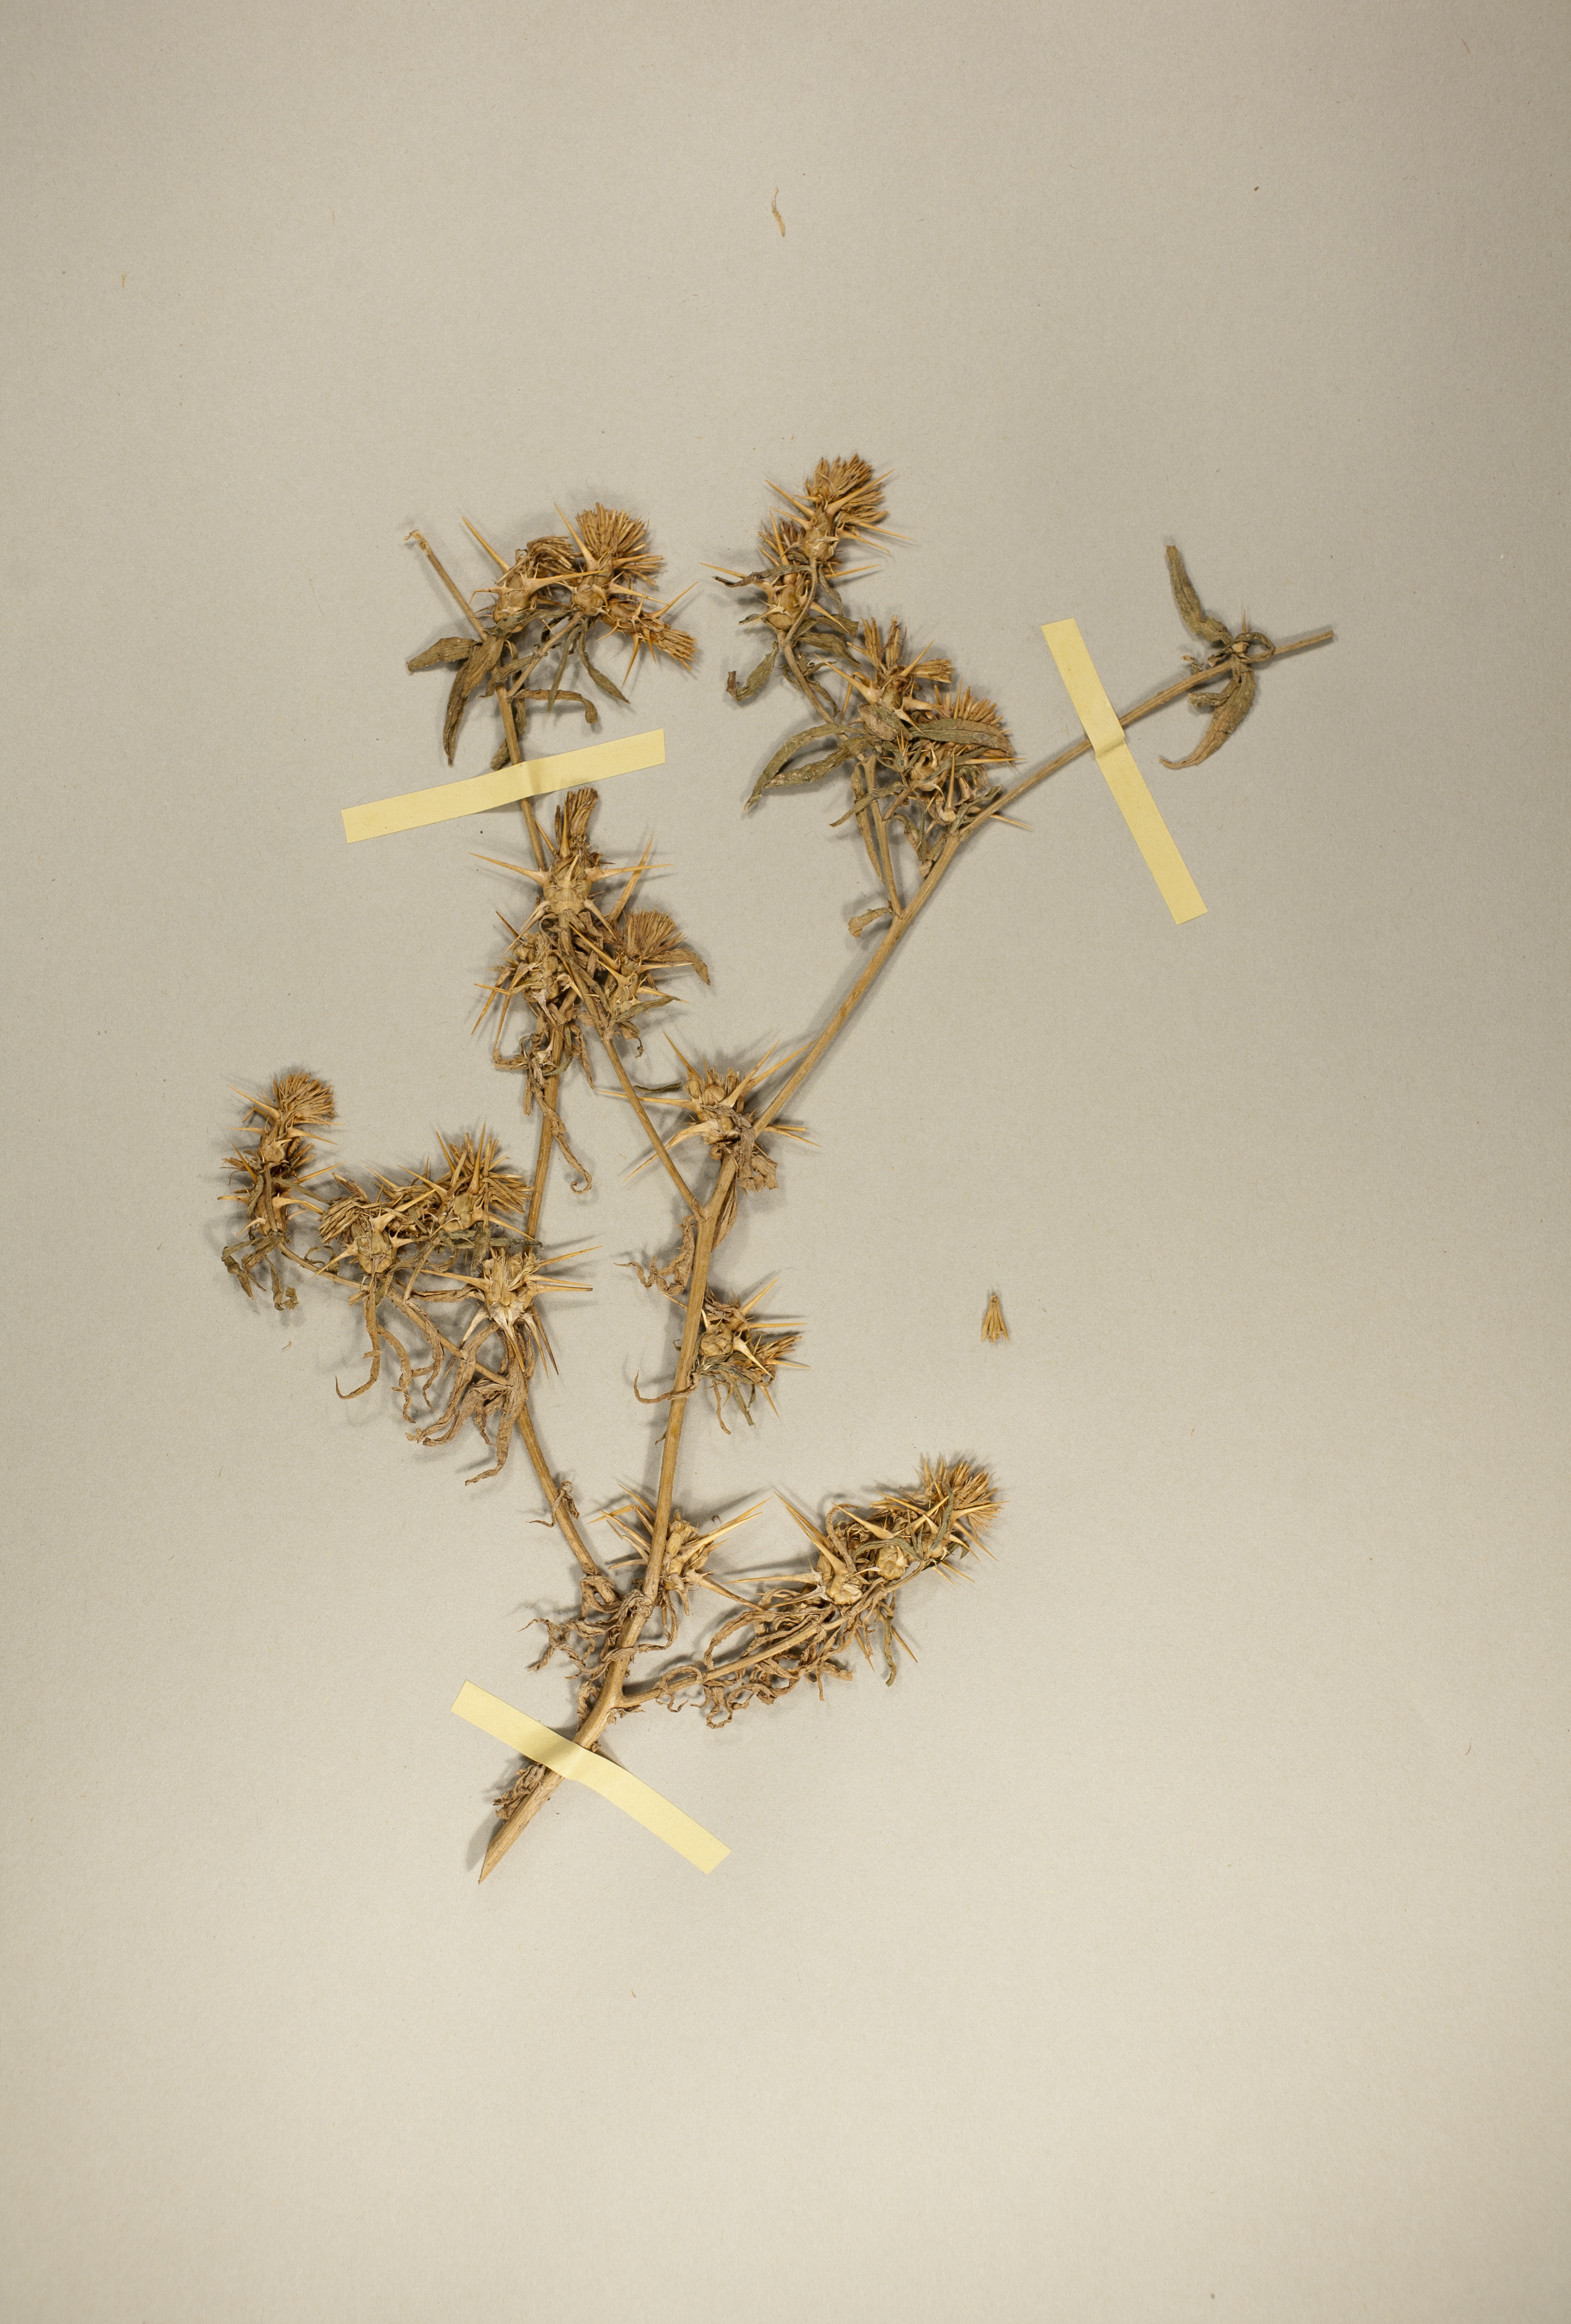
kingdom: Plantae
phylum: Tracheophyta
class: Magnoliopsida
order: Asterales
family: Asteraceae
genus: Centaurea
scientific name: Centaurea calcitrapa
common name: Red star-thistle
